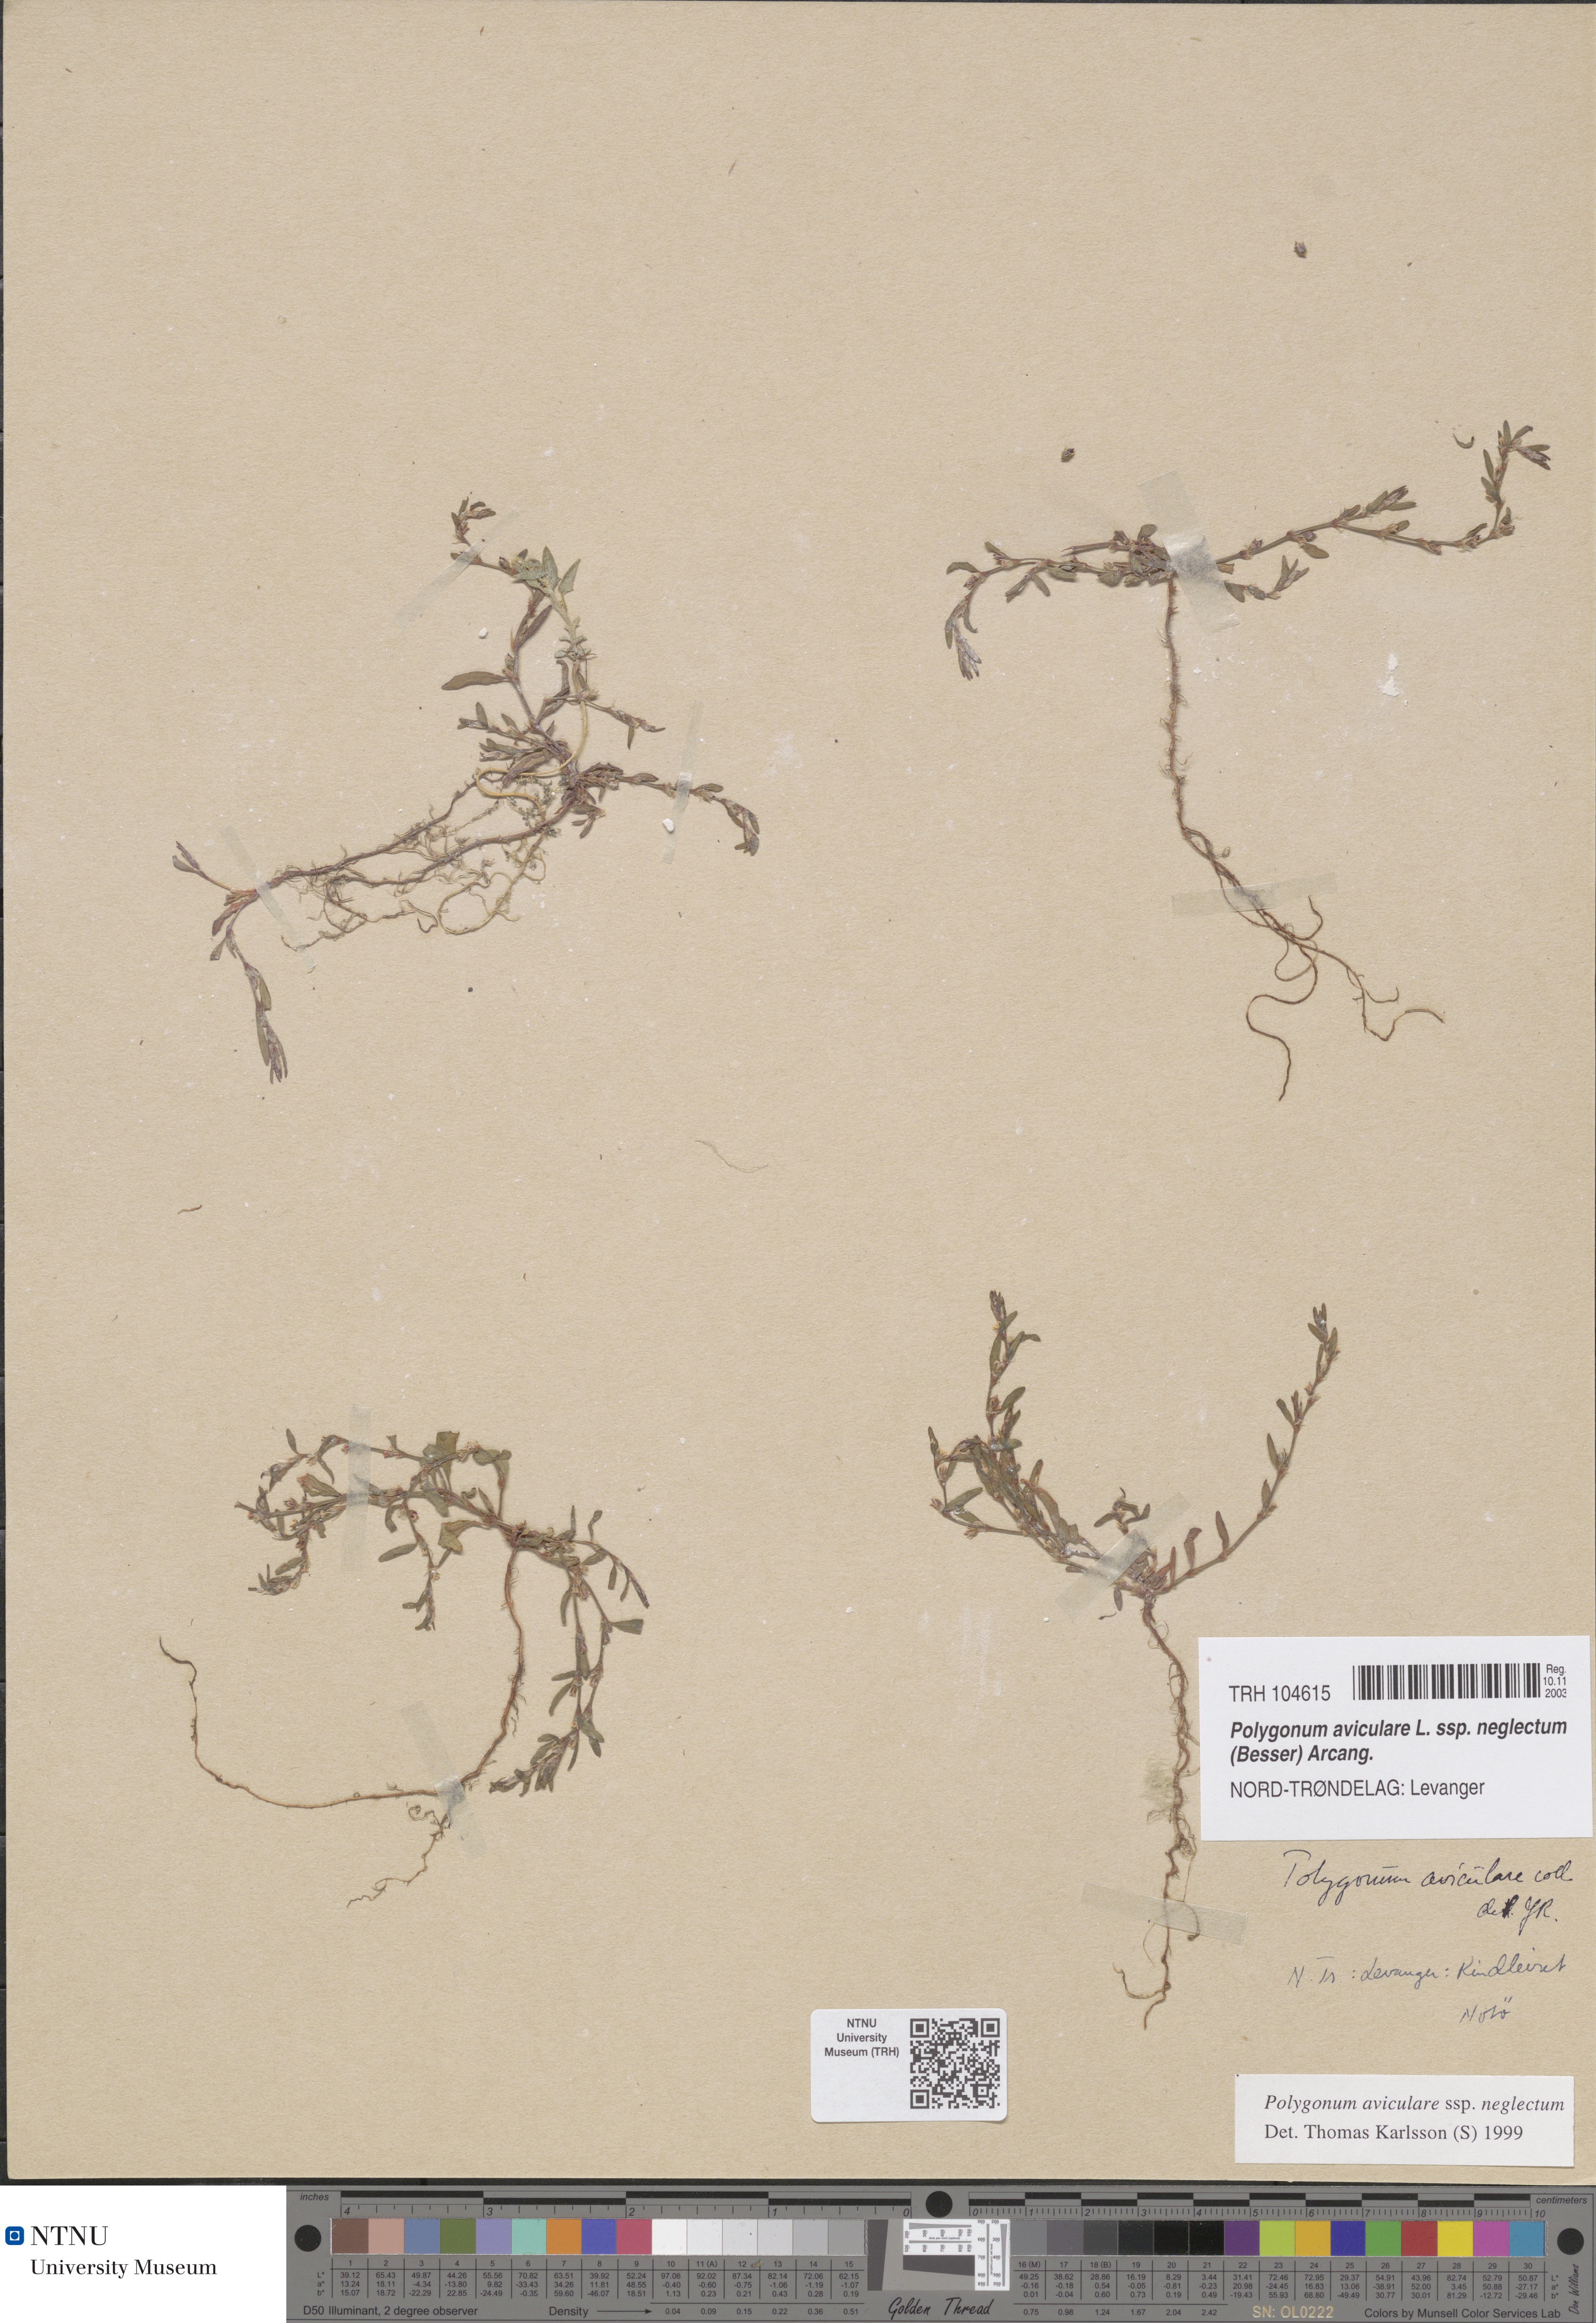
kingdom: Plantae
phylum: Tracheophyta
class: Magnoliopsida
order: Caryophyllales
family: Polygonaceae
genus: Polygonum
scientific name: Polygonum aviculare
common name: Prostrate knotweed
